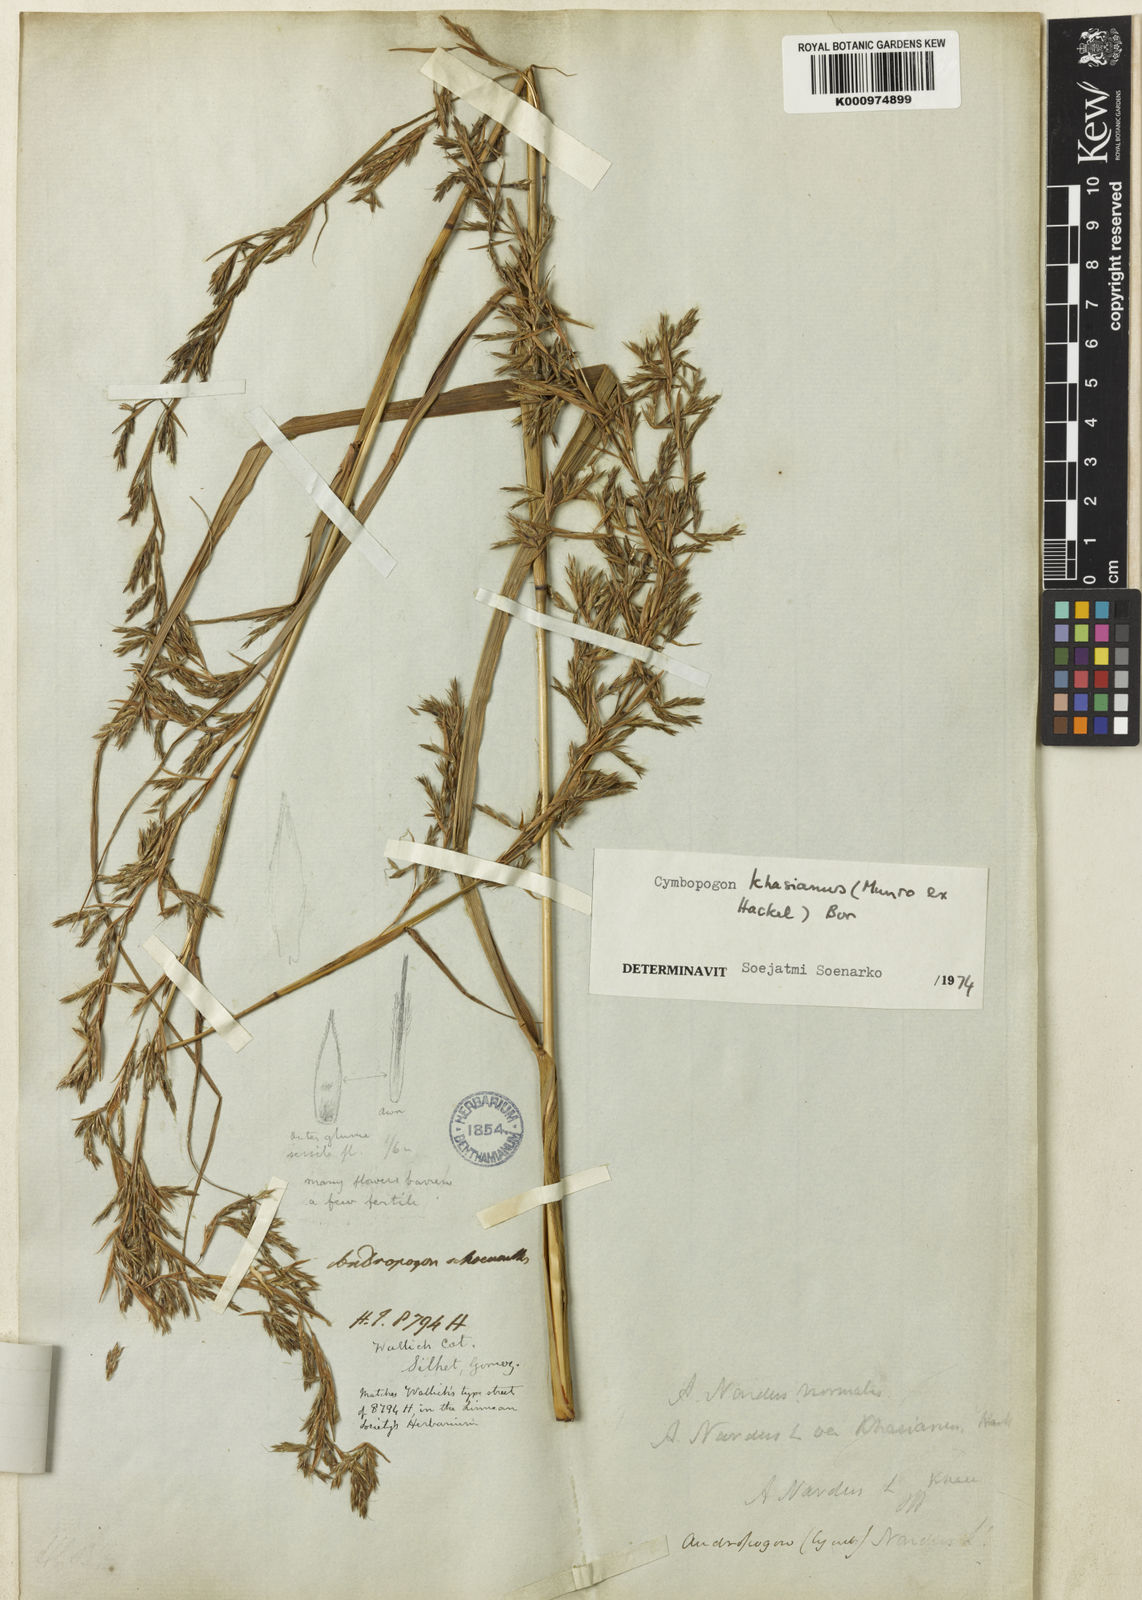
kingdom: Plantae
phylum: Tracheophyta
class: Liliopsida
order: Poales
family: Poaceae
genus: Cymbopogon
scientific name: Cymbopogon khasianus
